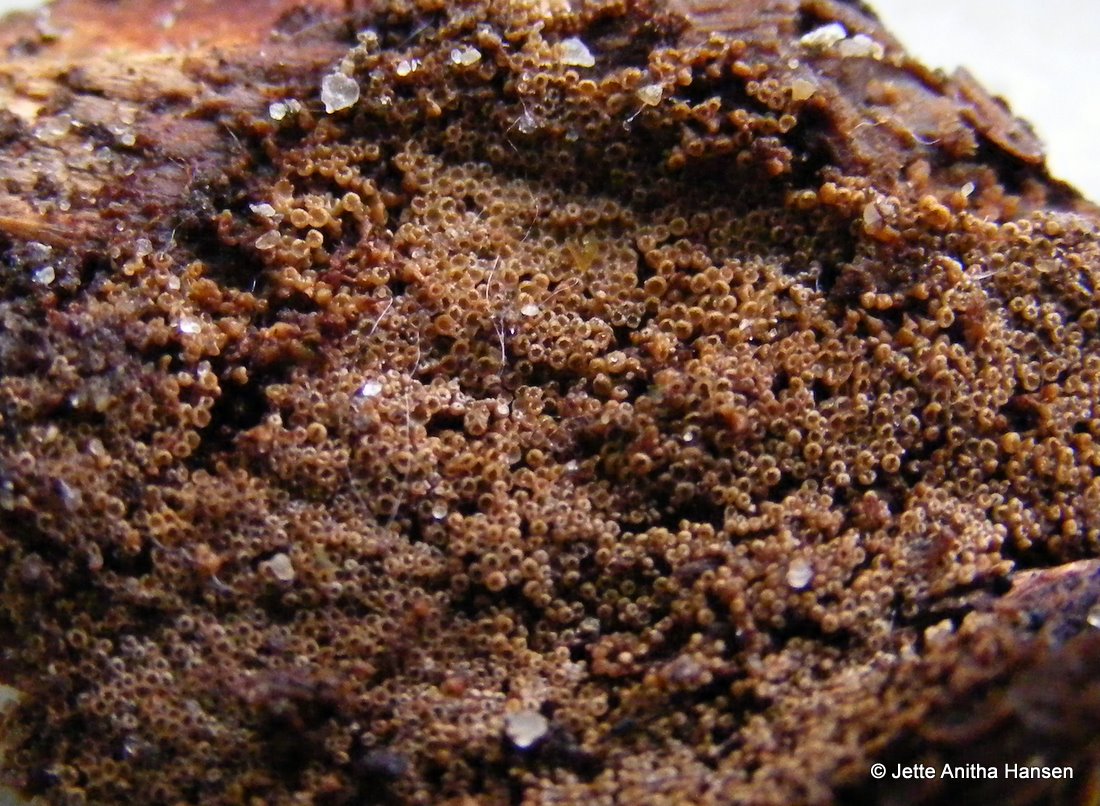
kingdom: Fungi
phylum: Basidiomycota
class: Agaricomycetes
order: Agaricales
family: Niaceae
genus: Merismodes
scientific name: Merismodes anomala
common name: almindelig læderskål
